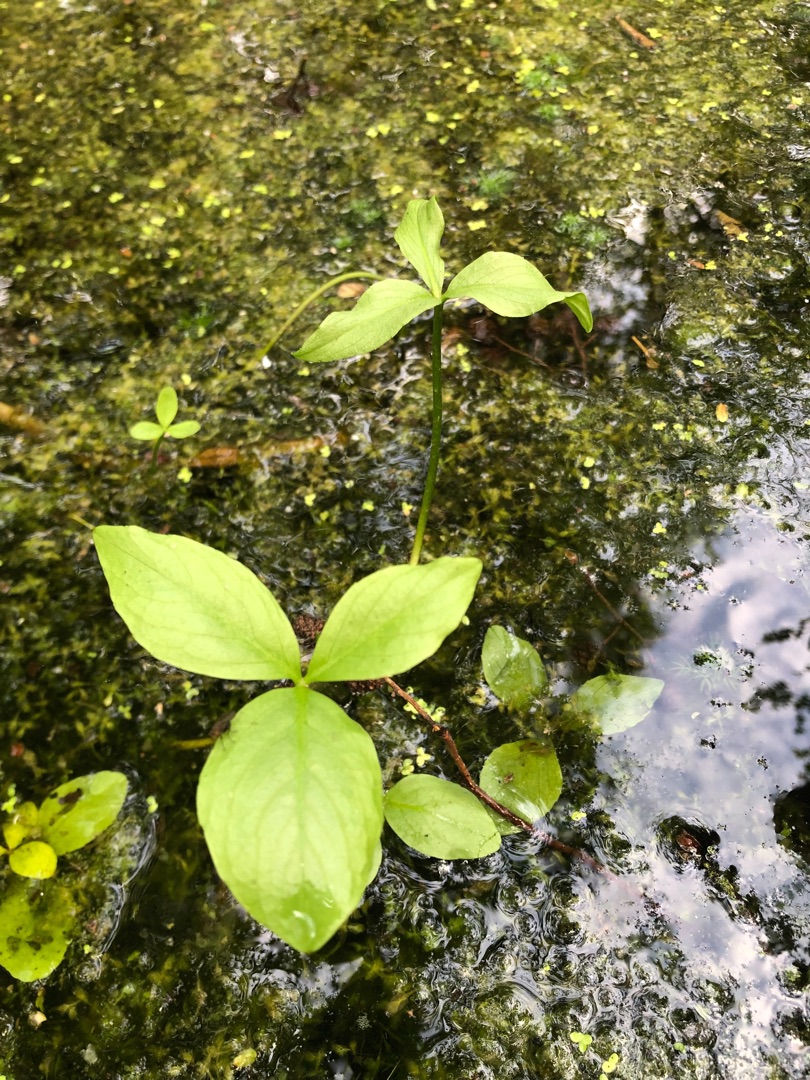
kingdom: Plantae
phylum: Tracheophyta
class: Magnoliopsida
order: Asterales
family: Menyanthaceae
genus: Menyanthes
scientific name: Menyanthes trifoliata
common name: Bukkeblad
